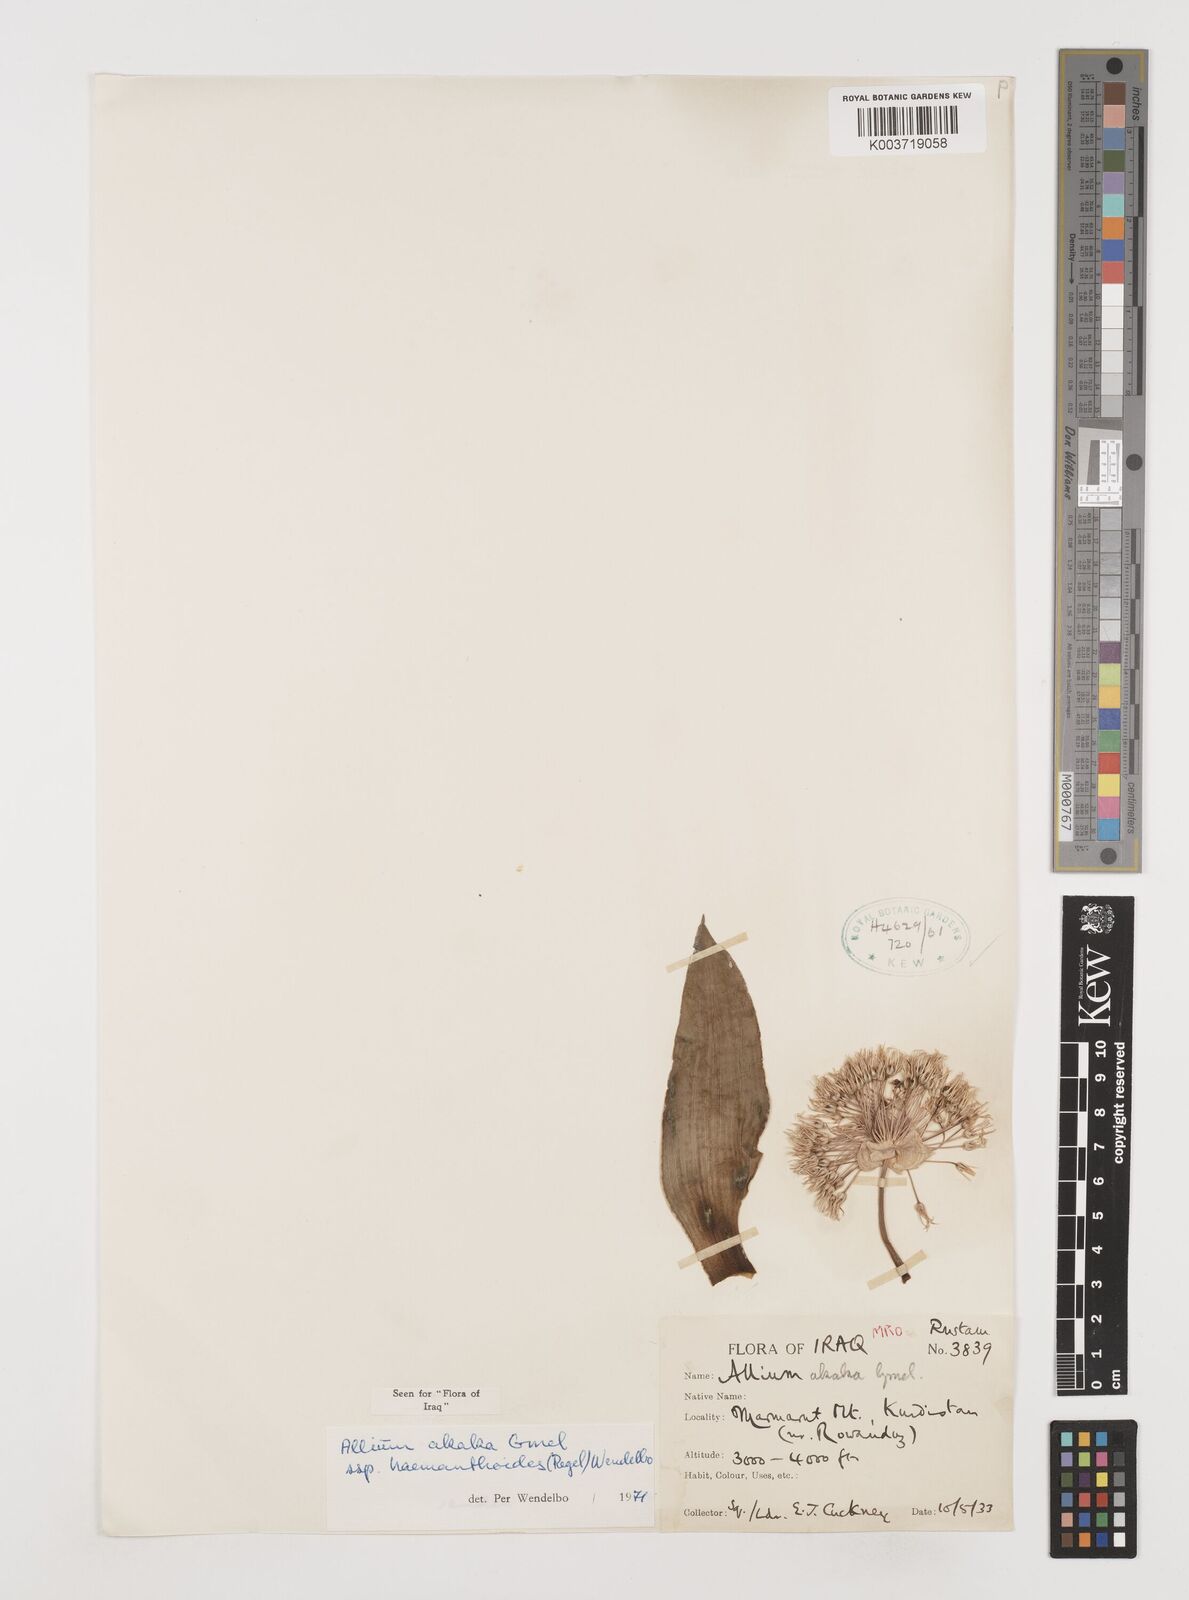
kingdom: Plantae
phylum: Tracheophyta
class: Liliopsida
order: Asparagales
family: Amaryllidaceae
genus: Allium
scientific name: Allium haemanthoides
